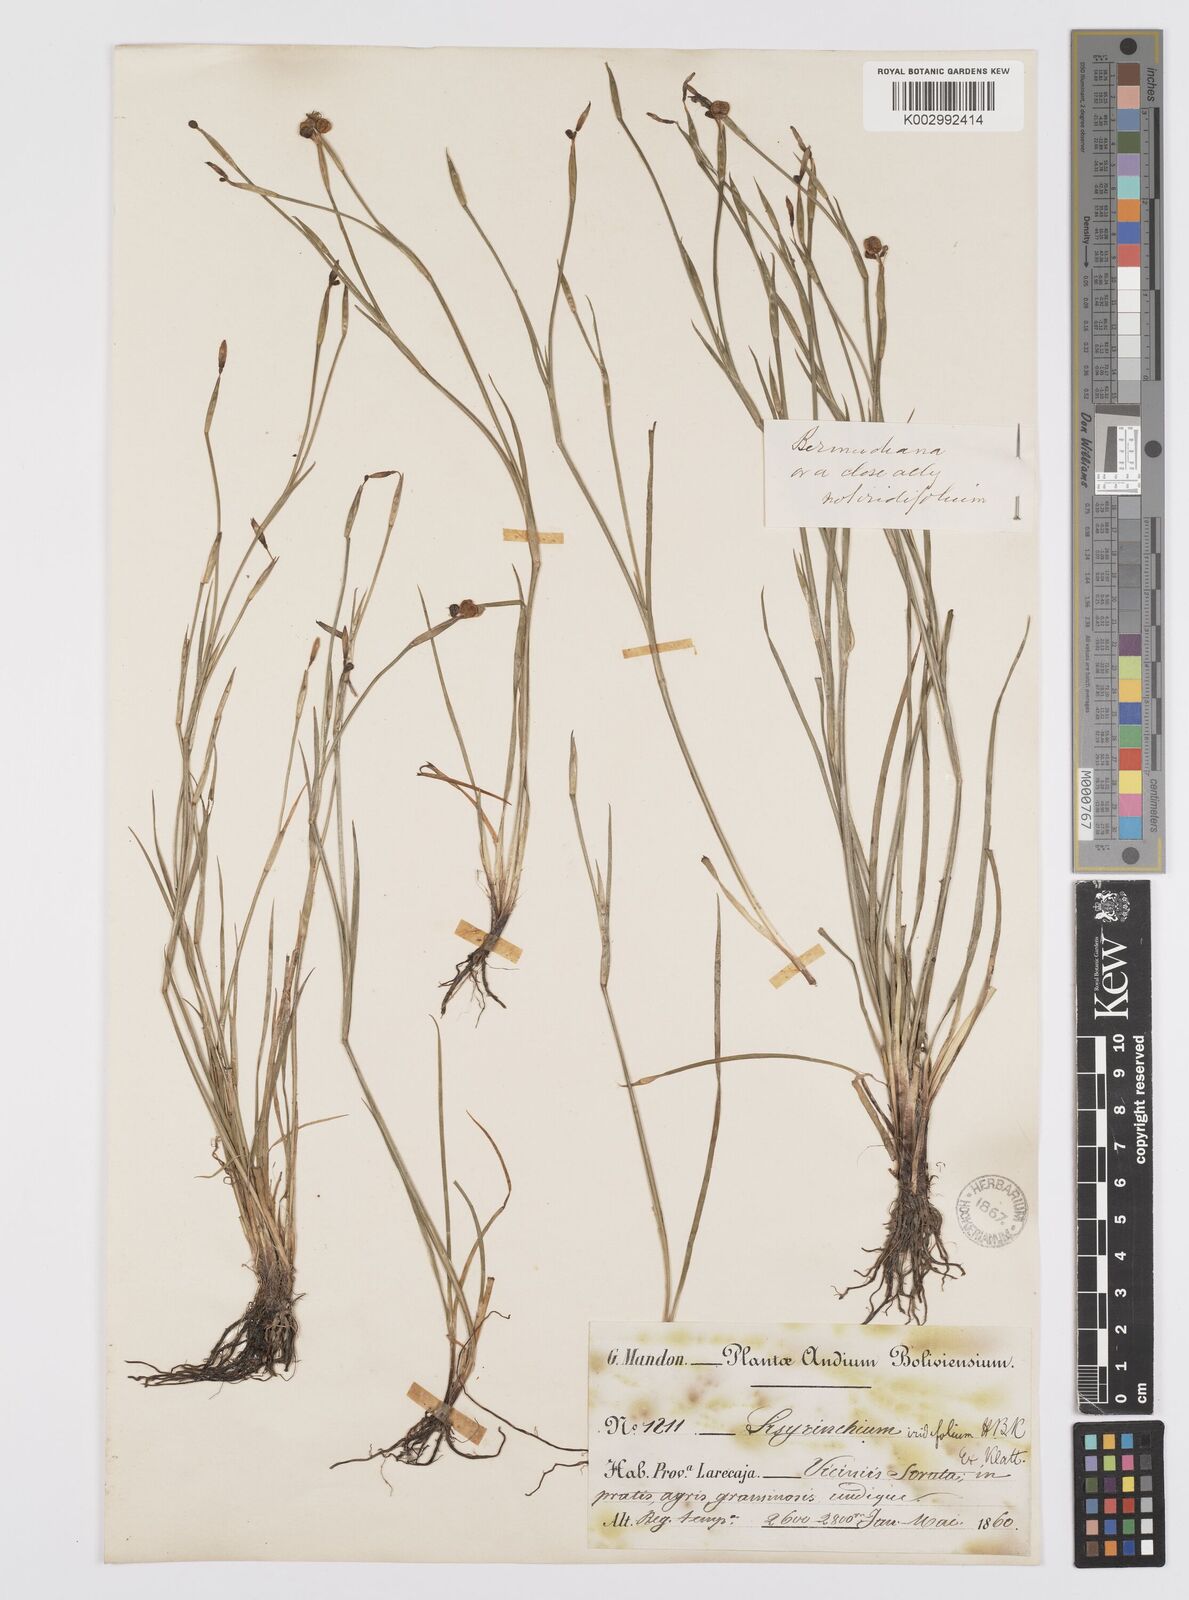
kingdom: Plantae
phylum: Tracheophyta
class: Liliopsida
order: Asparagales
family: Iridaceae
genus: Sisyrinchium
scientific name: Sisyrinchium bermudiana
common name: Blue-eyed-grass
